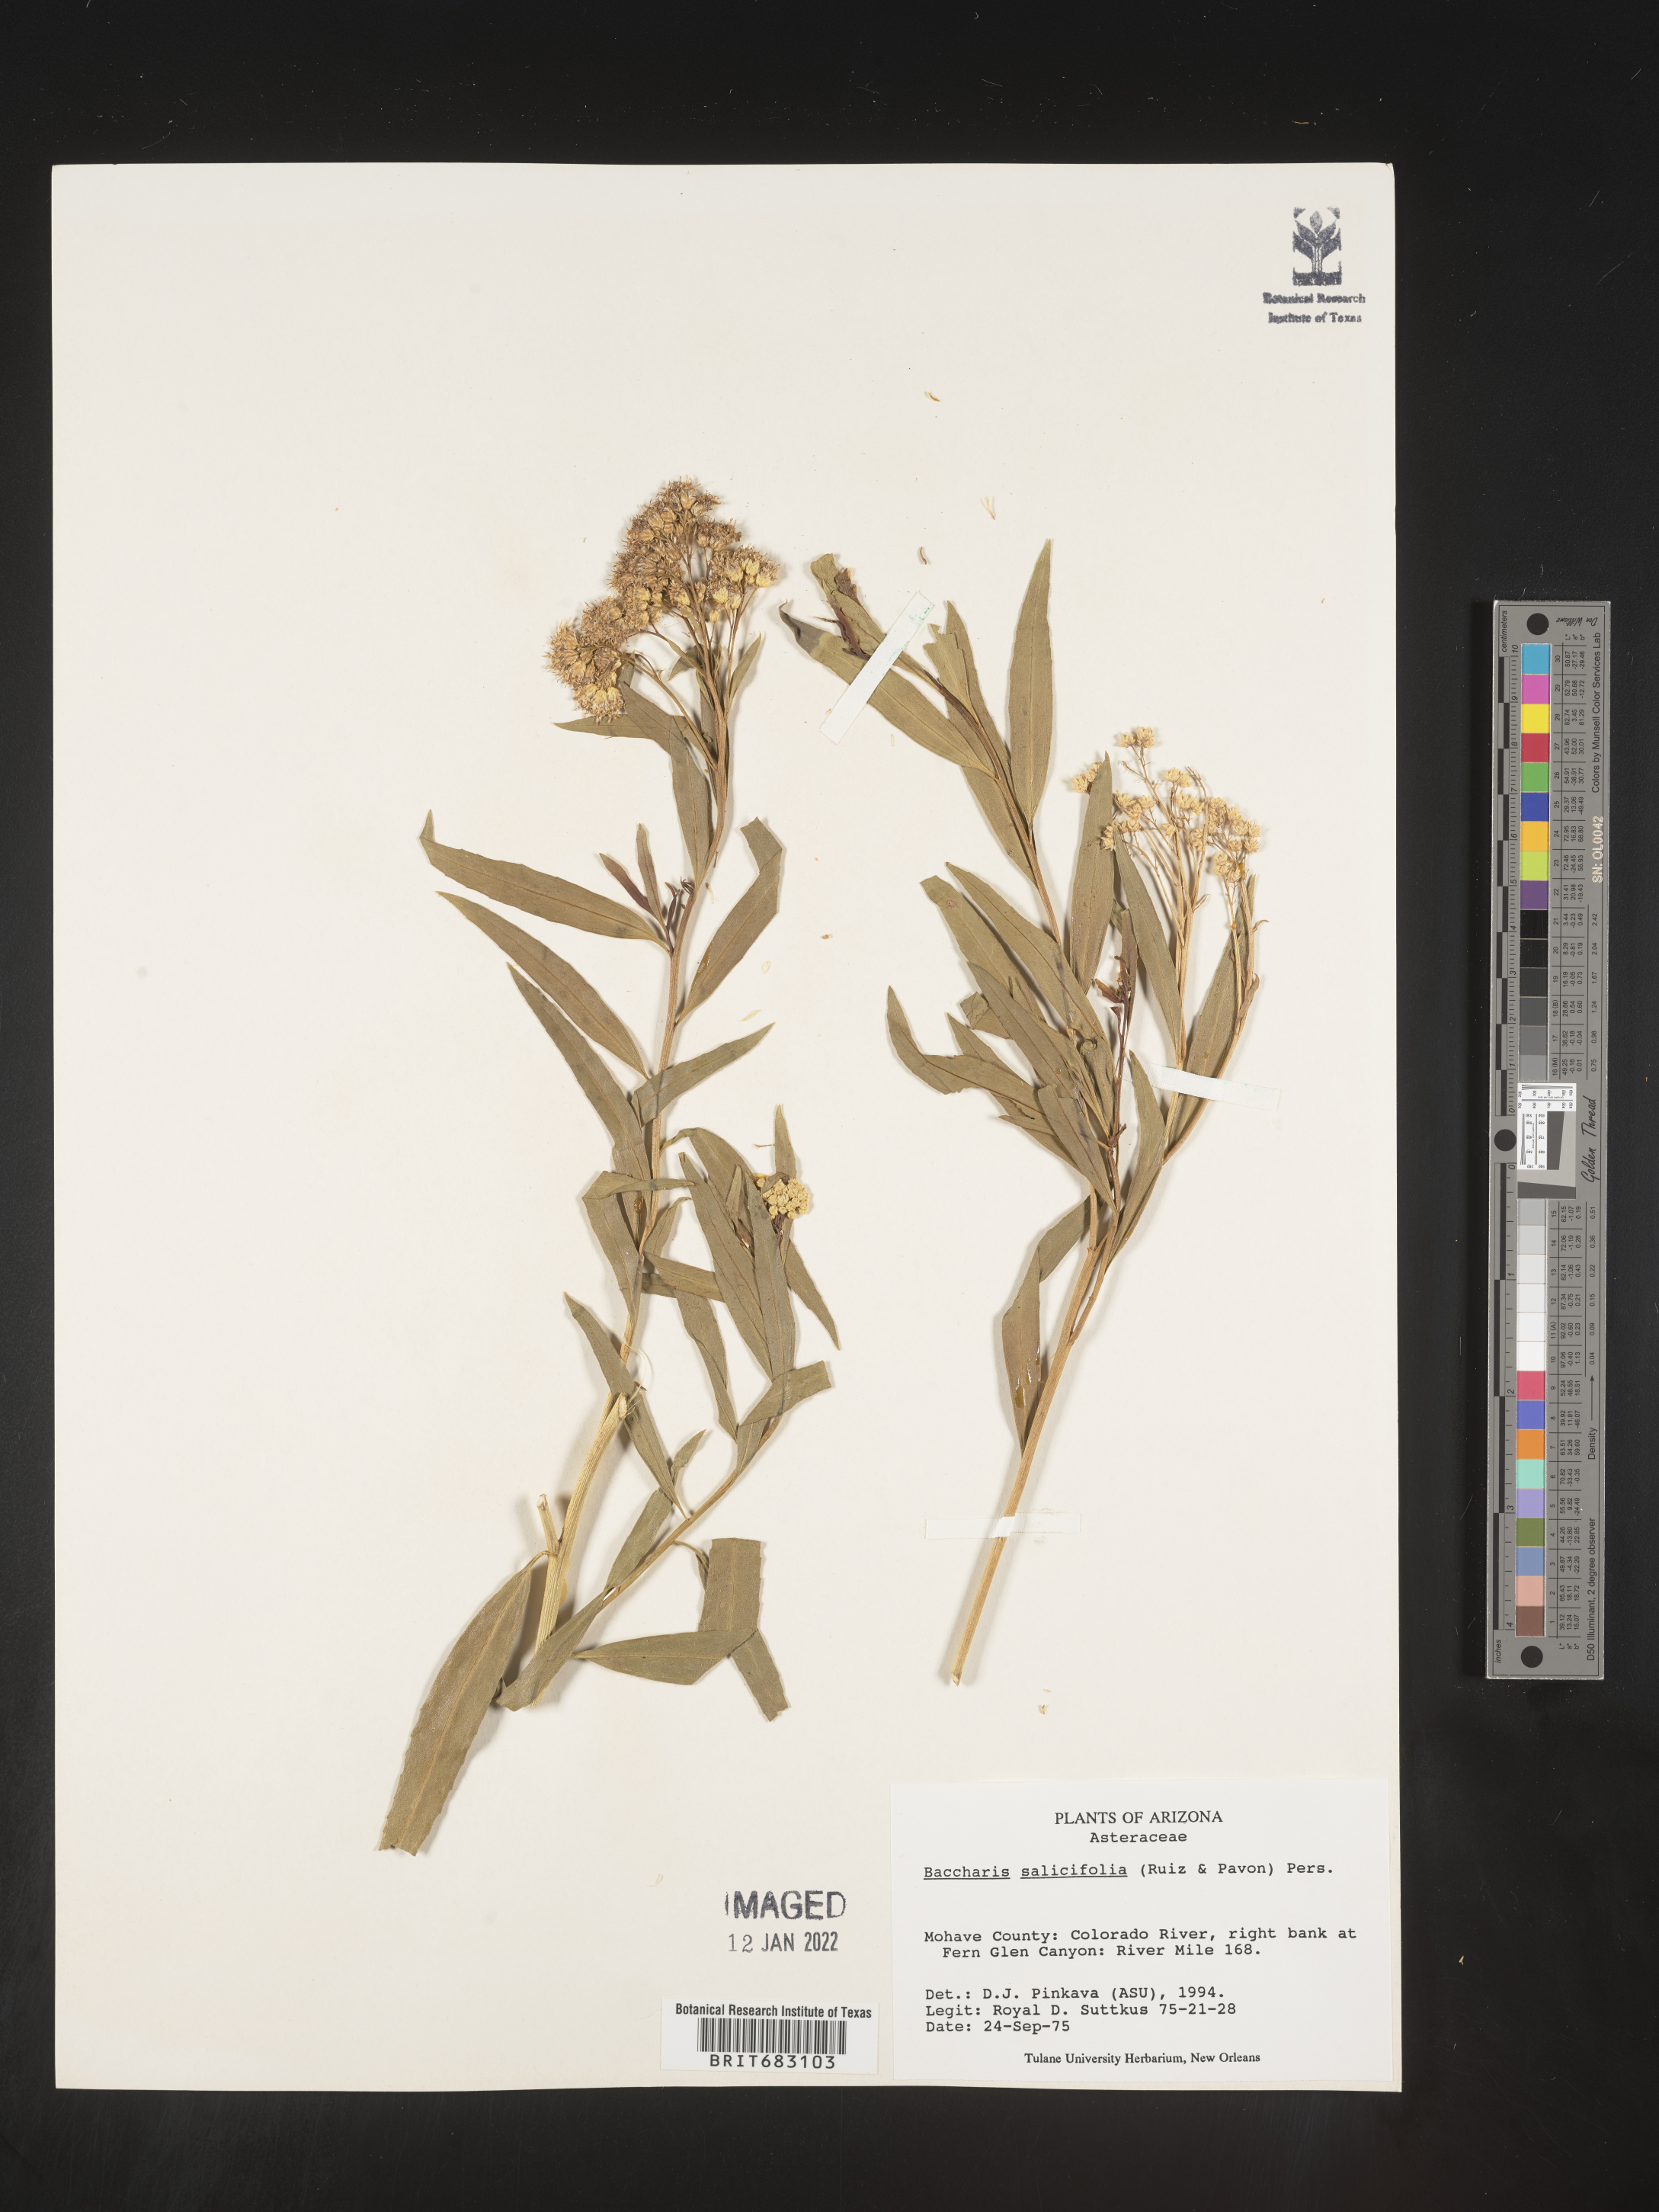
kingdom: Plantae
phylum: Tracheophyta
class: Magnoliopsida
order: Asterales
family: Asteraceae
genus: Baccharis
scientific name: Baccharis salicifolia
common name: Sticky baccharis
